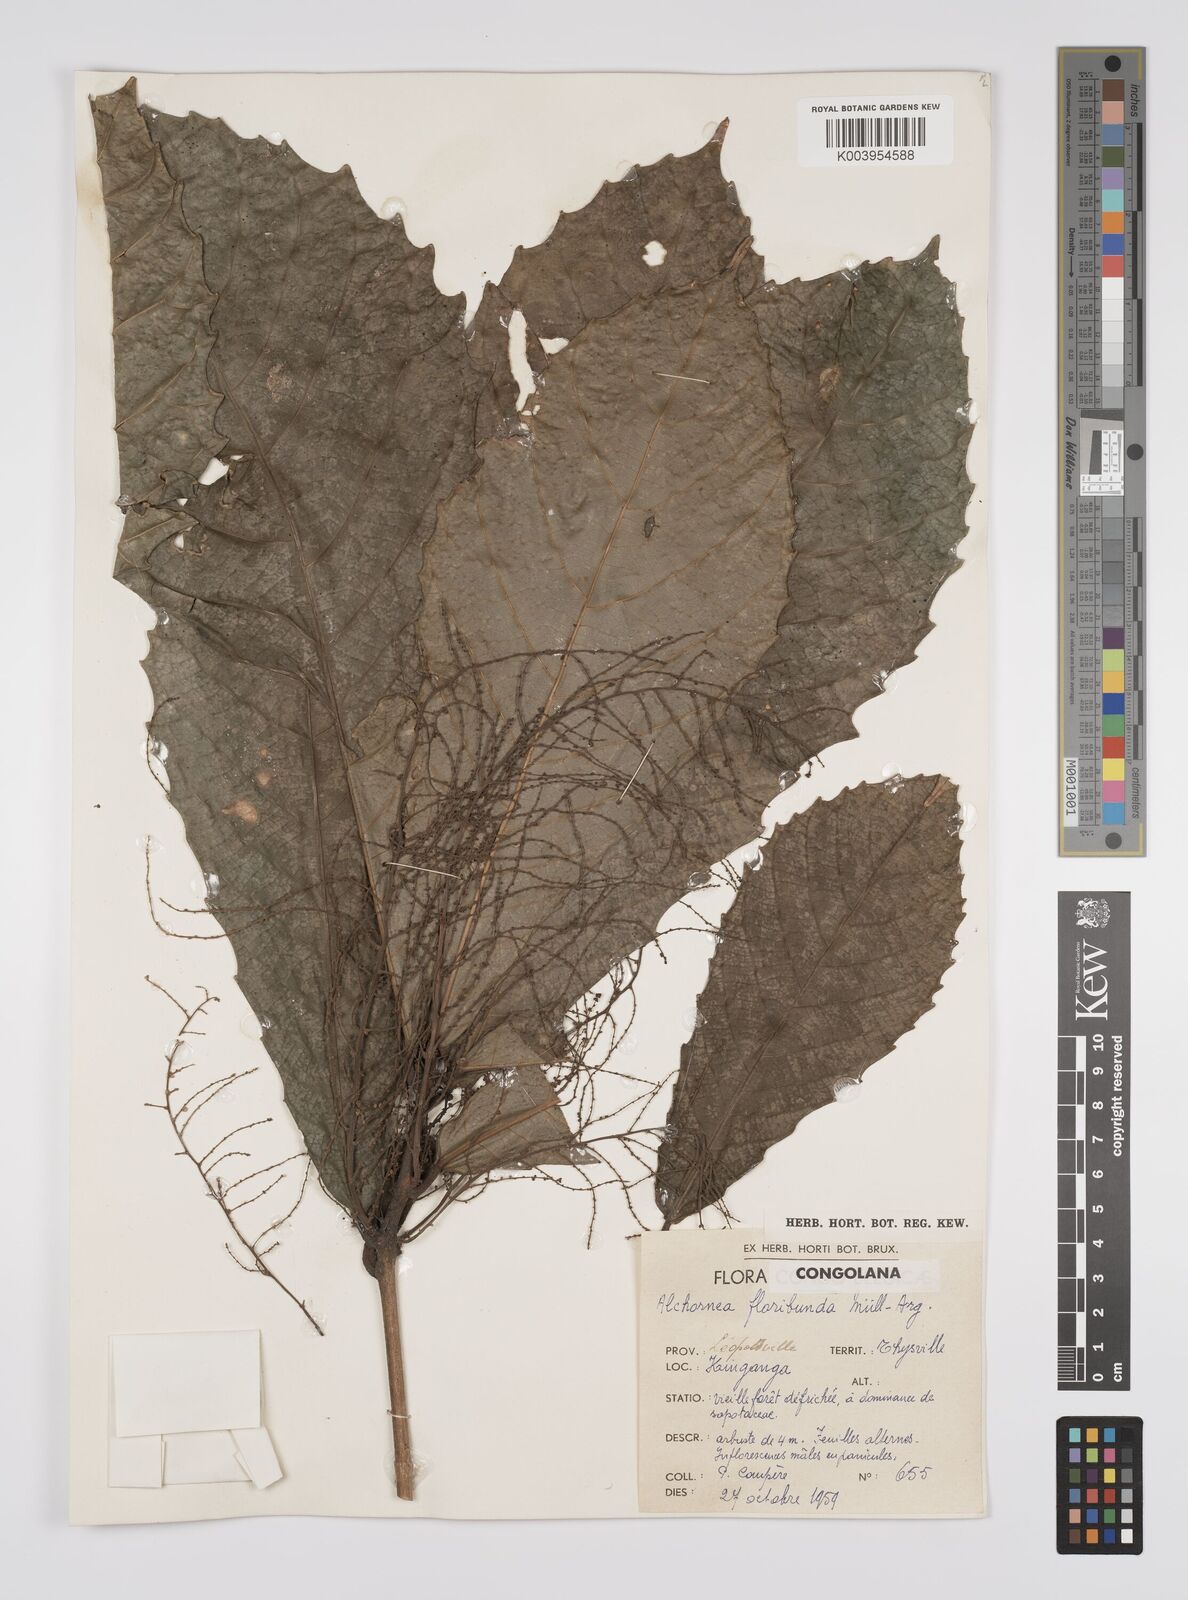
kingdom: Plantae
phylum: Tracheophyta
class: Magnoliopsida
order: Malpighiales
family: Euphorbiaceae
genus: Alchornea
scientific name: Alchornea floribunda
